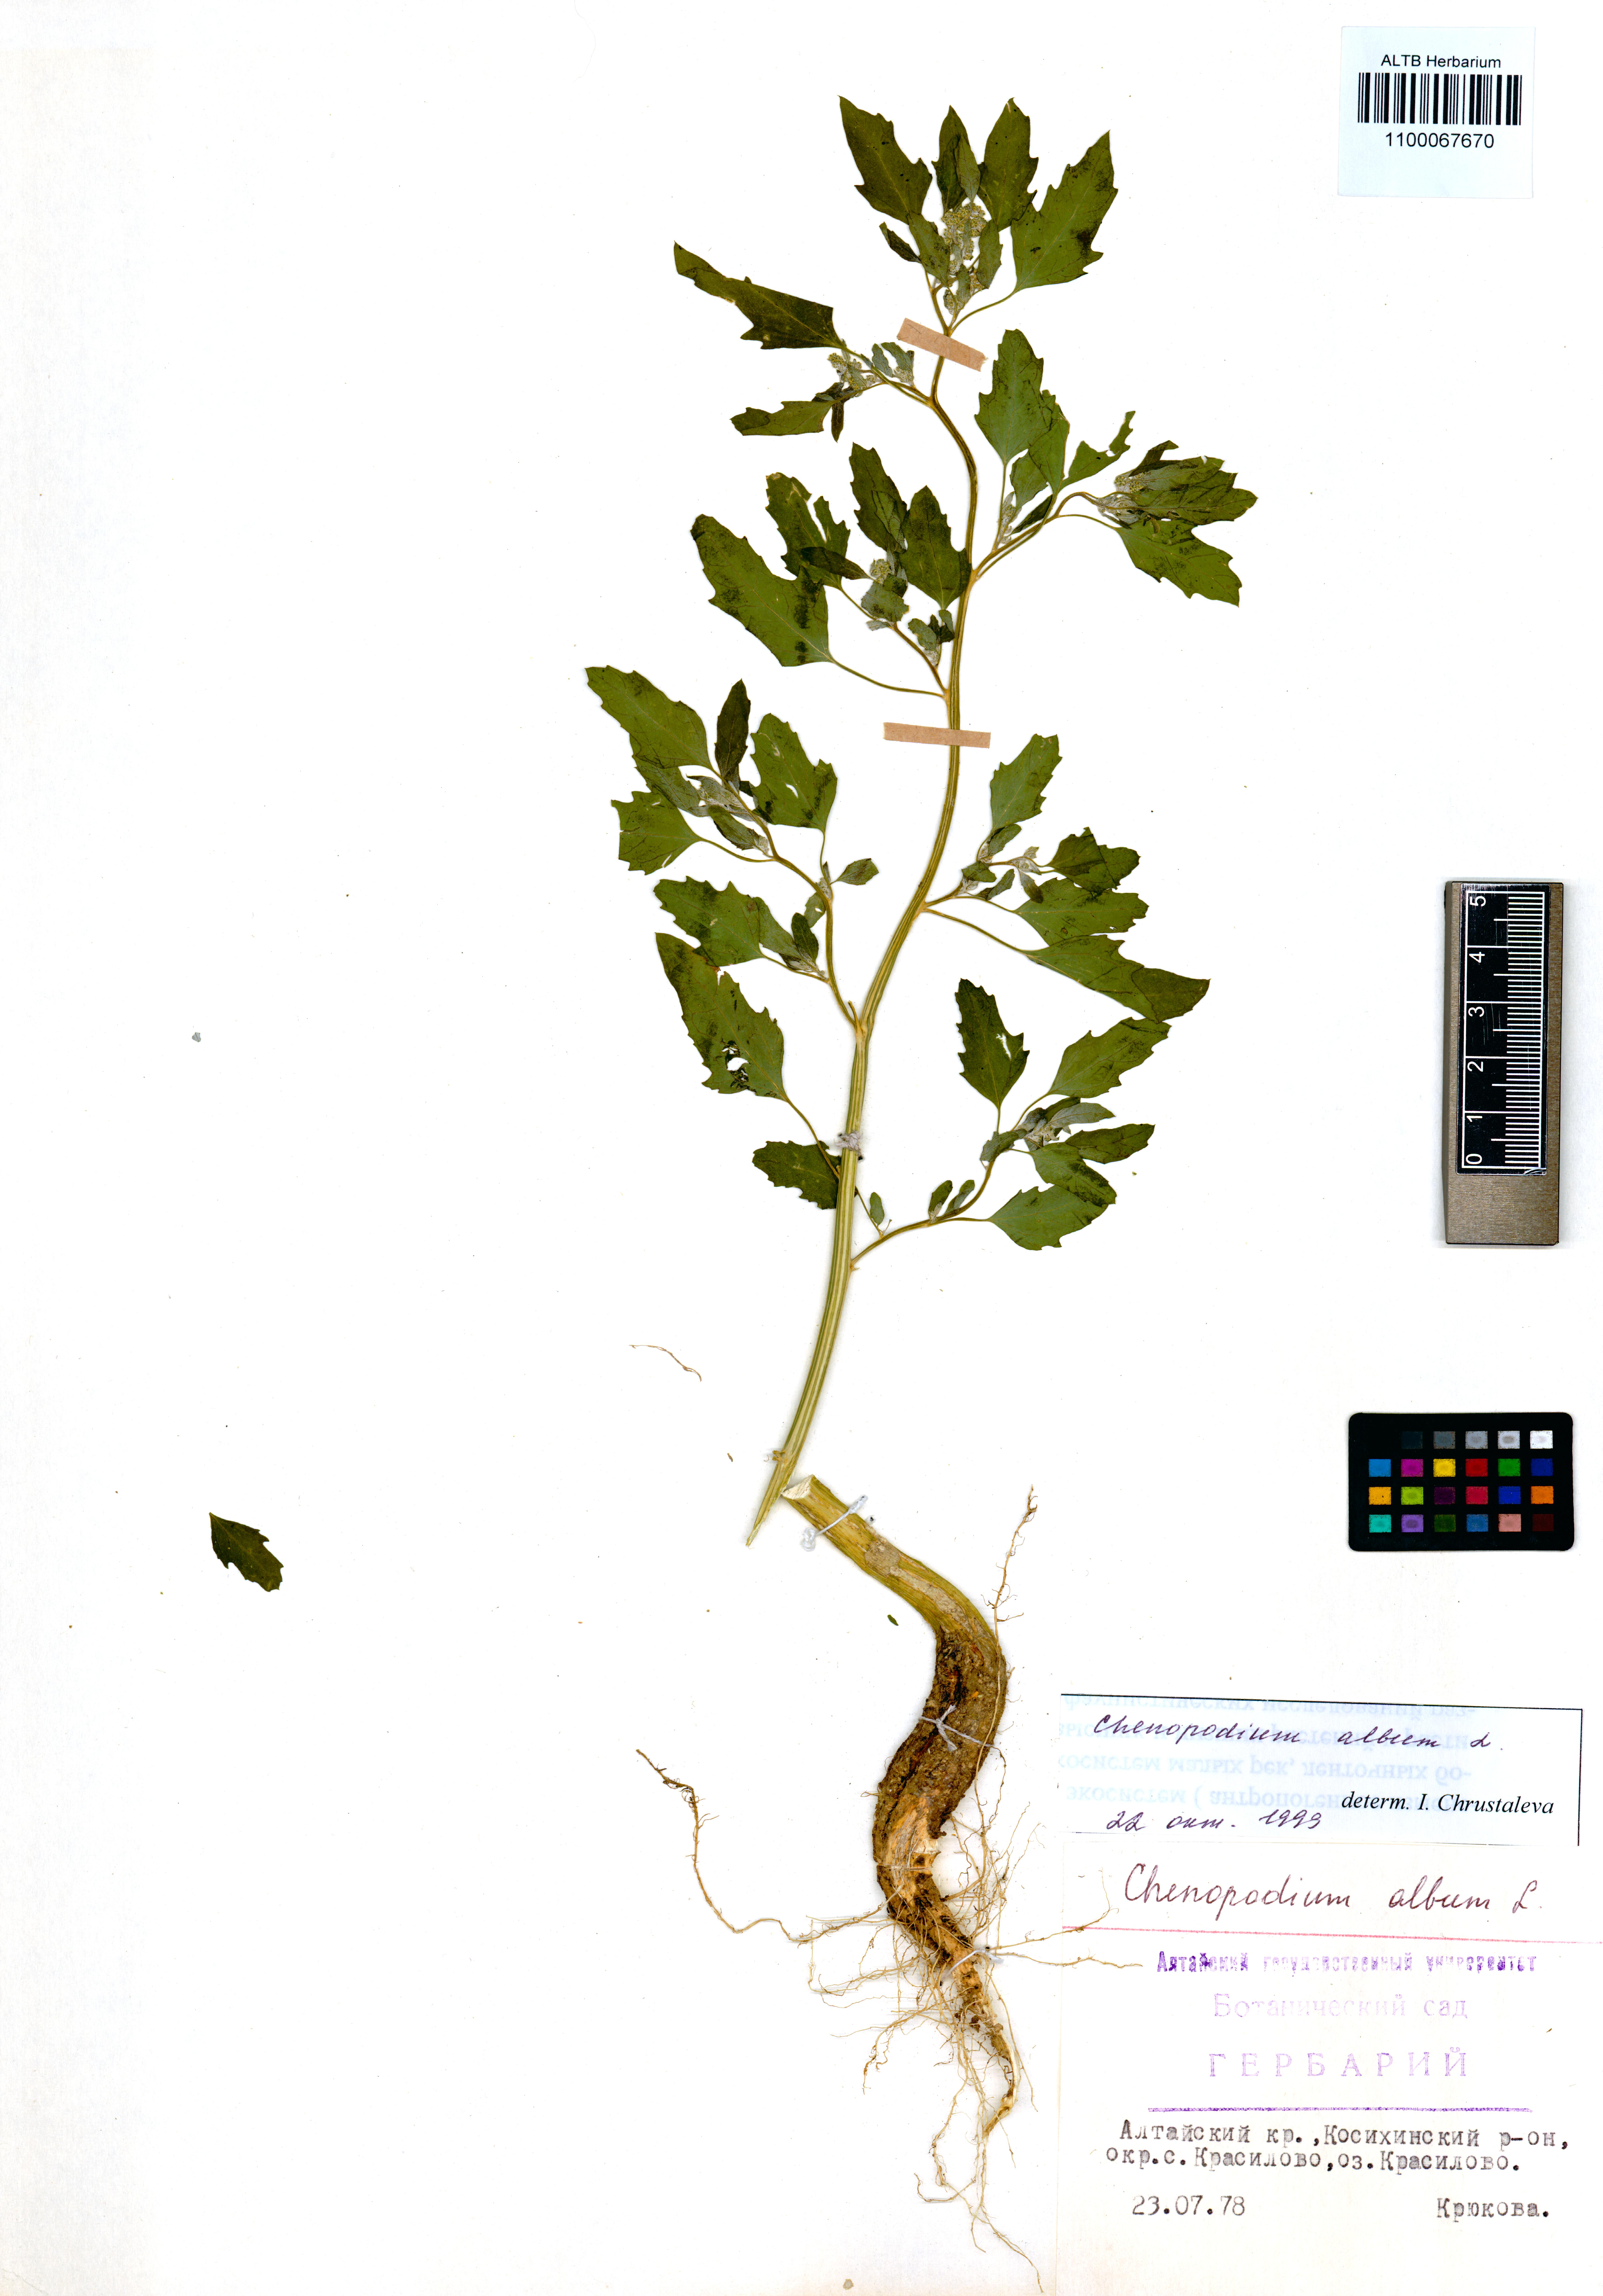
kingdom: Plantae
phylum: Tracheophyta
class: Magnoliopsida
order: Caryophyllales
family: Amaranthaceae
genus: Chenopodium
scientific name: Chenopodium album
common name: Fat-hen
